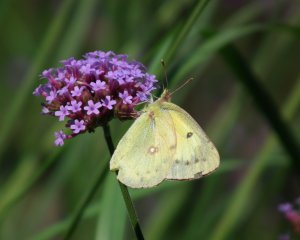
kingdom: Animalia
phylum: Arthropoda
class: Insecta
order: Lepidoptera
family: Pieridae
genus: Colias
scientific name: Colias eurytheme
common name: Orange Sulphur
